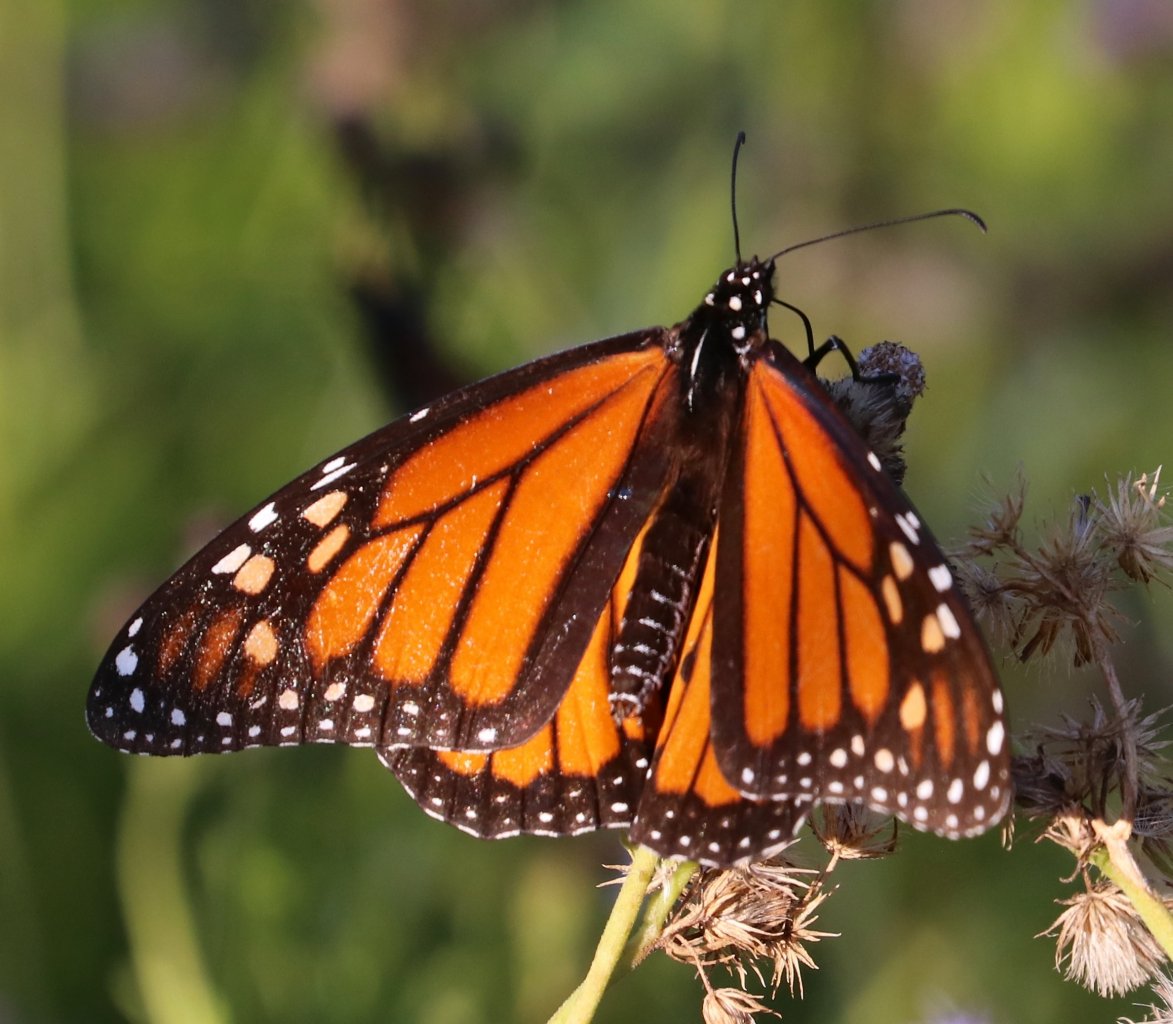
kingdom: Animalia
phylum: Arthropoda
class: Insecta
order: Lepidoptera
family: Nymphalidae
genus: Danaus
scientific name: Danaus plexippus
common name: Monarch
